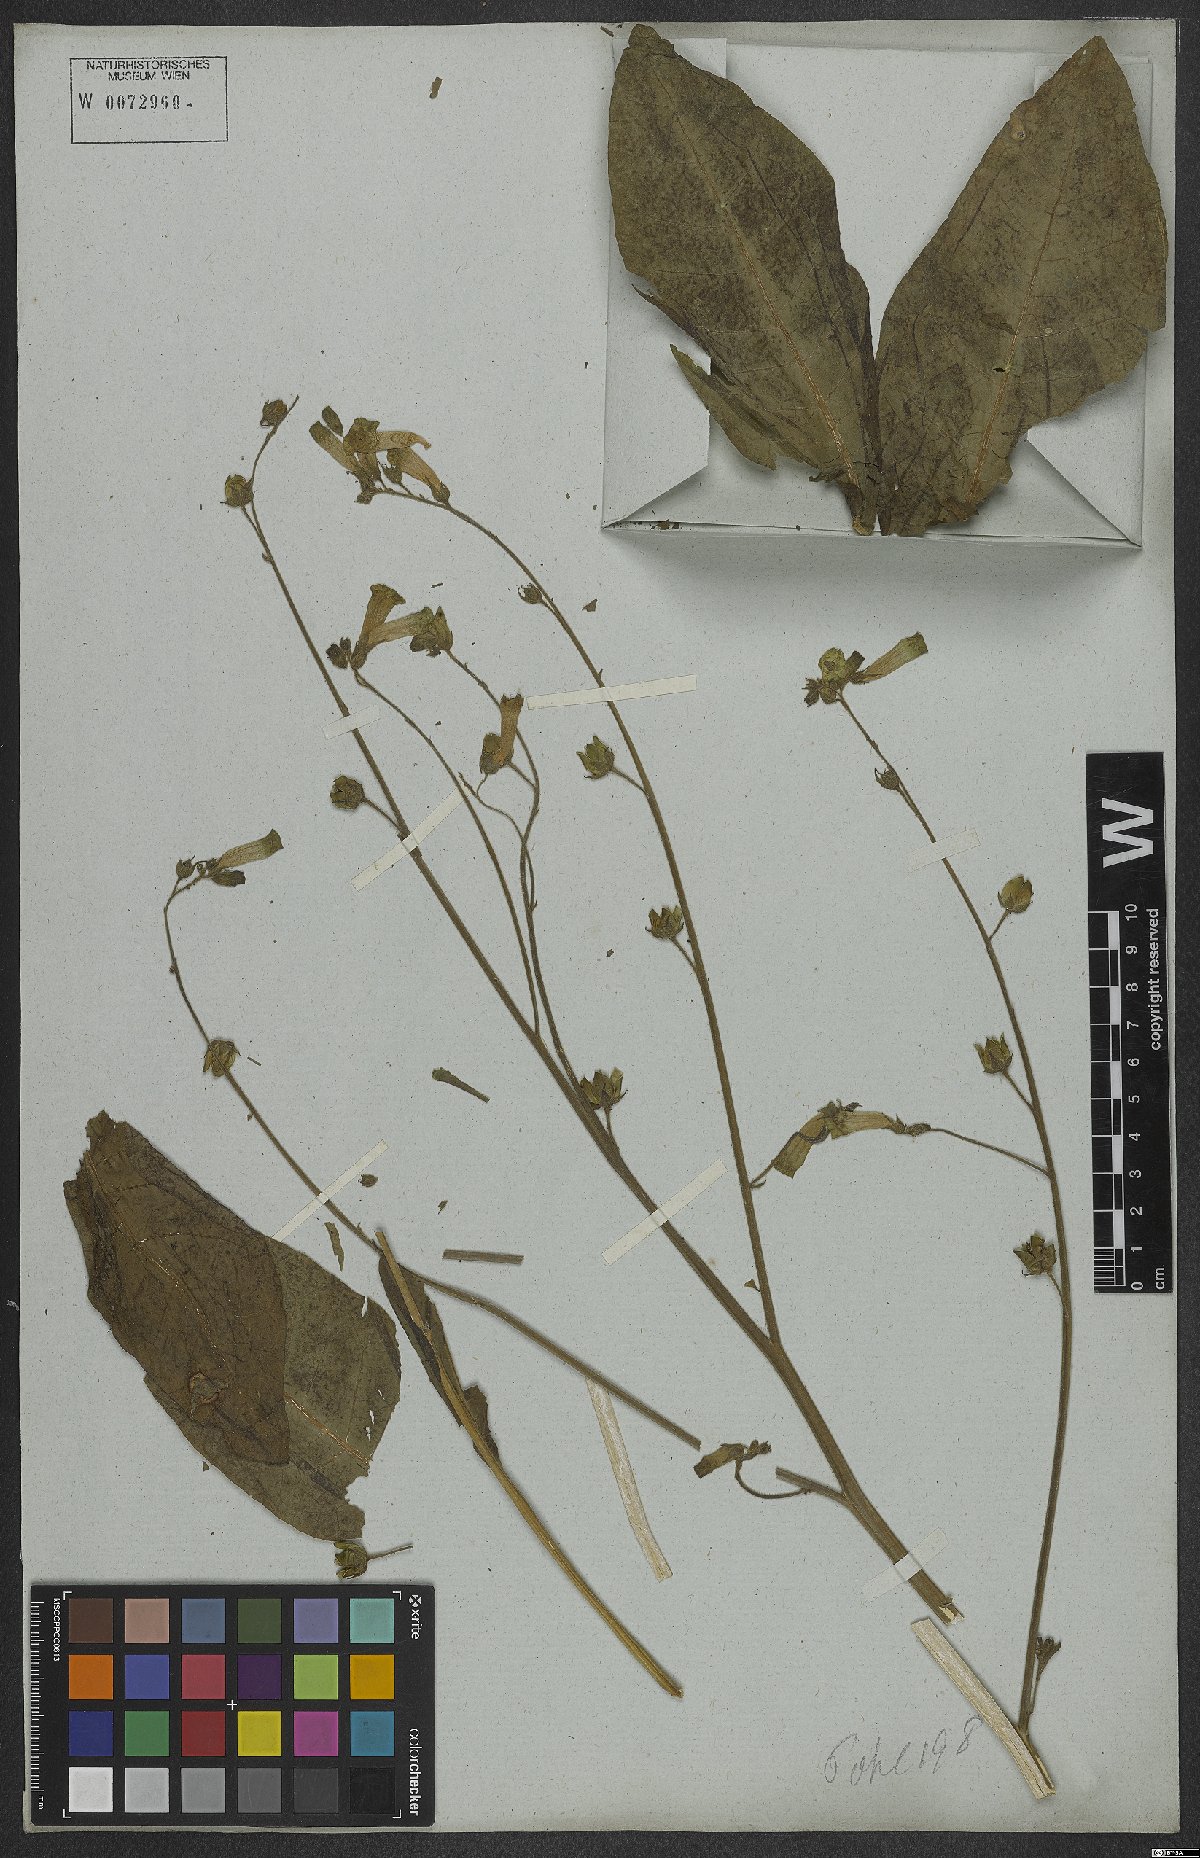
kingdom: Plantae
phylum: Tracheophyta
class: Magnoliopsida
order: Solanales
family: Solanaceae
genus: Nicotiana
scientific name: Nicotiana langsdorffii
